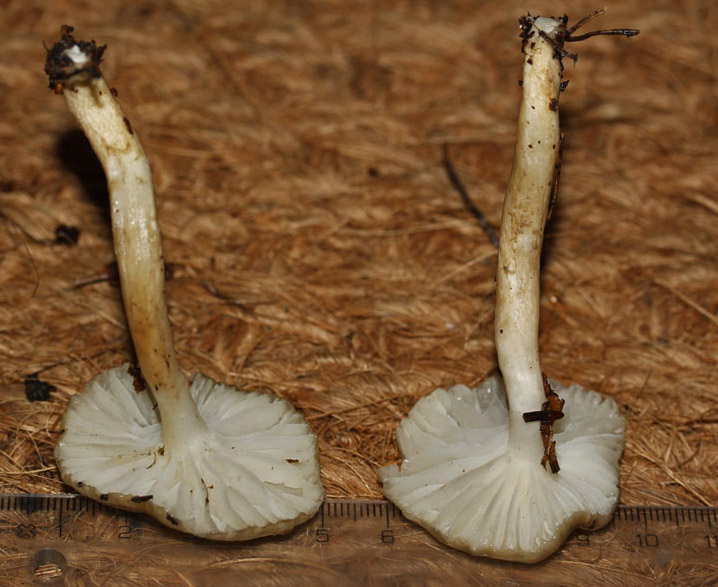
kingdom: Fungi
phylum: Basidiomycota
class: Agaricomycetes
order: Agaricales
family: Hygrophoraceae
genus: Hygrophorus
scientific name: Hygrophorus olivaceoalbus
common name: hvidbrun sneglehat
